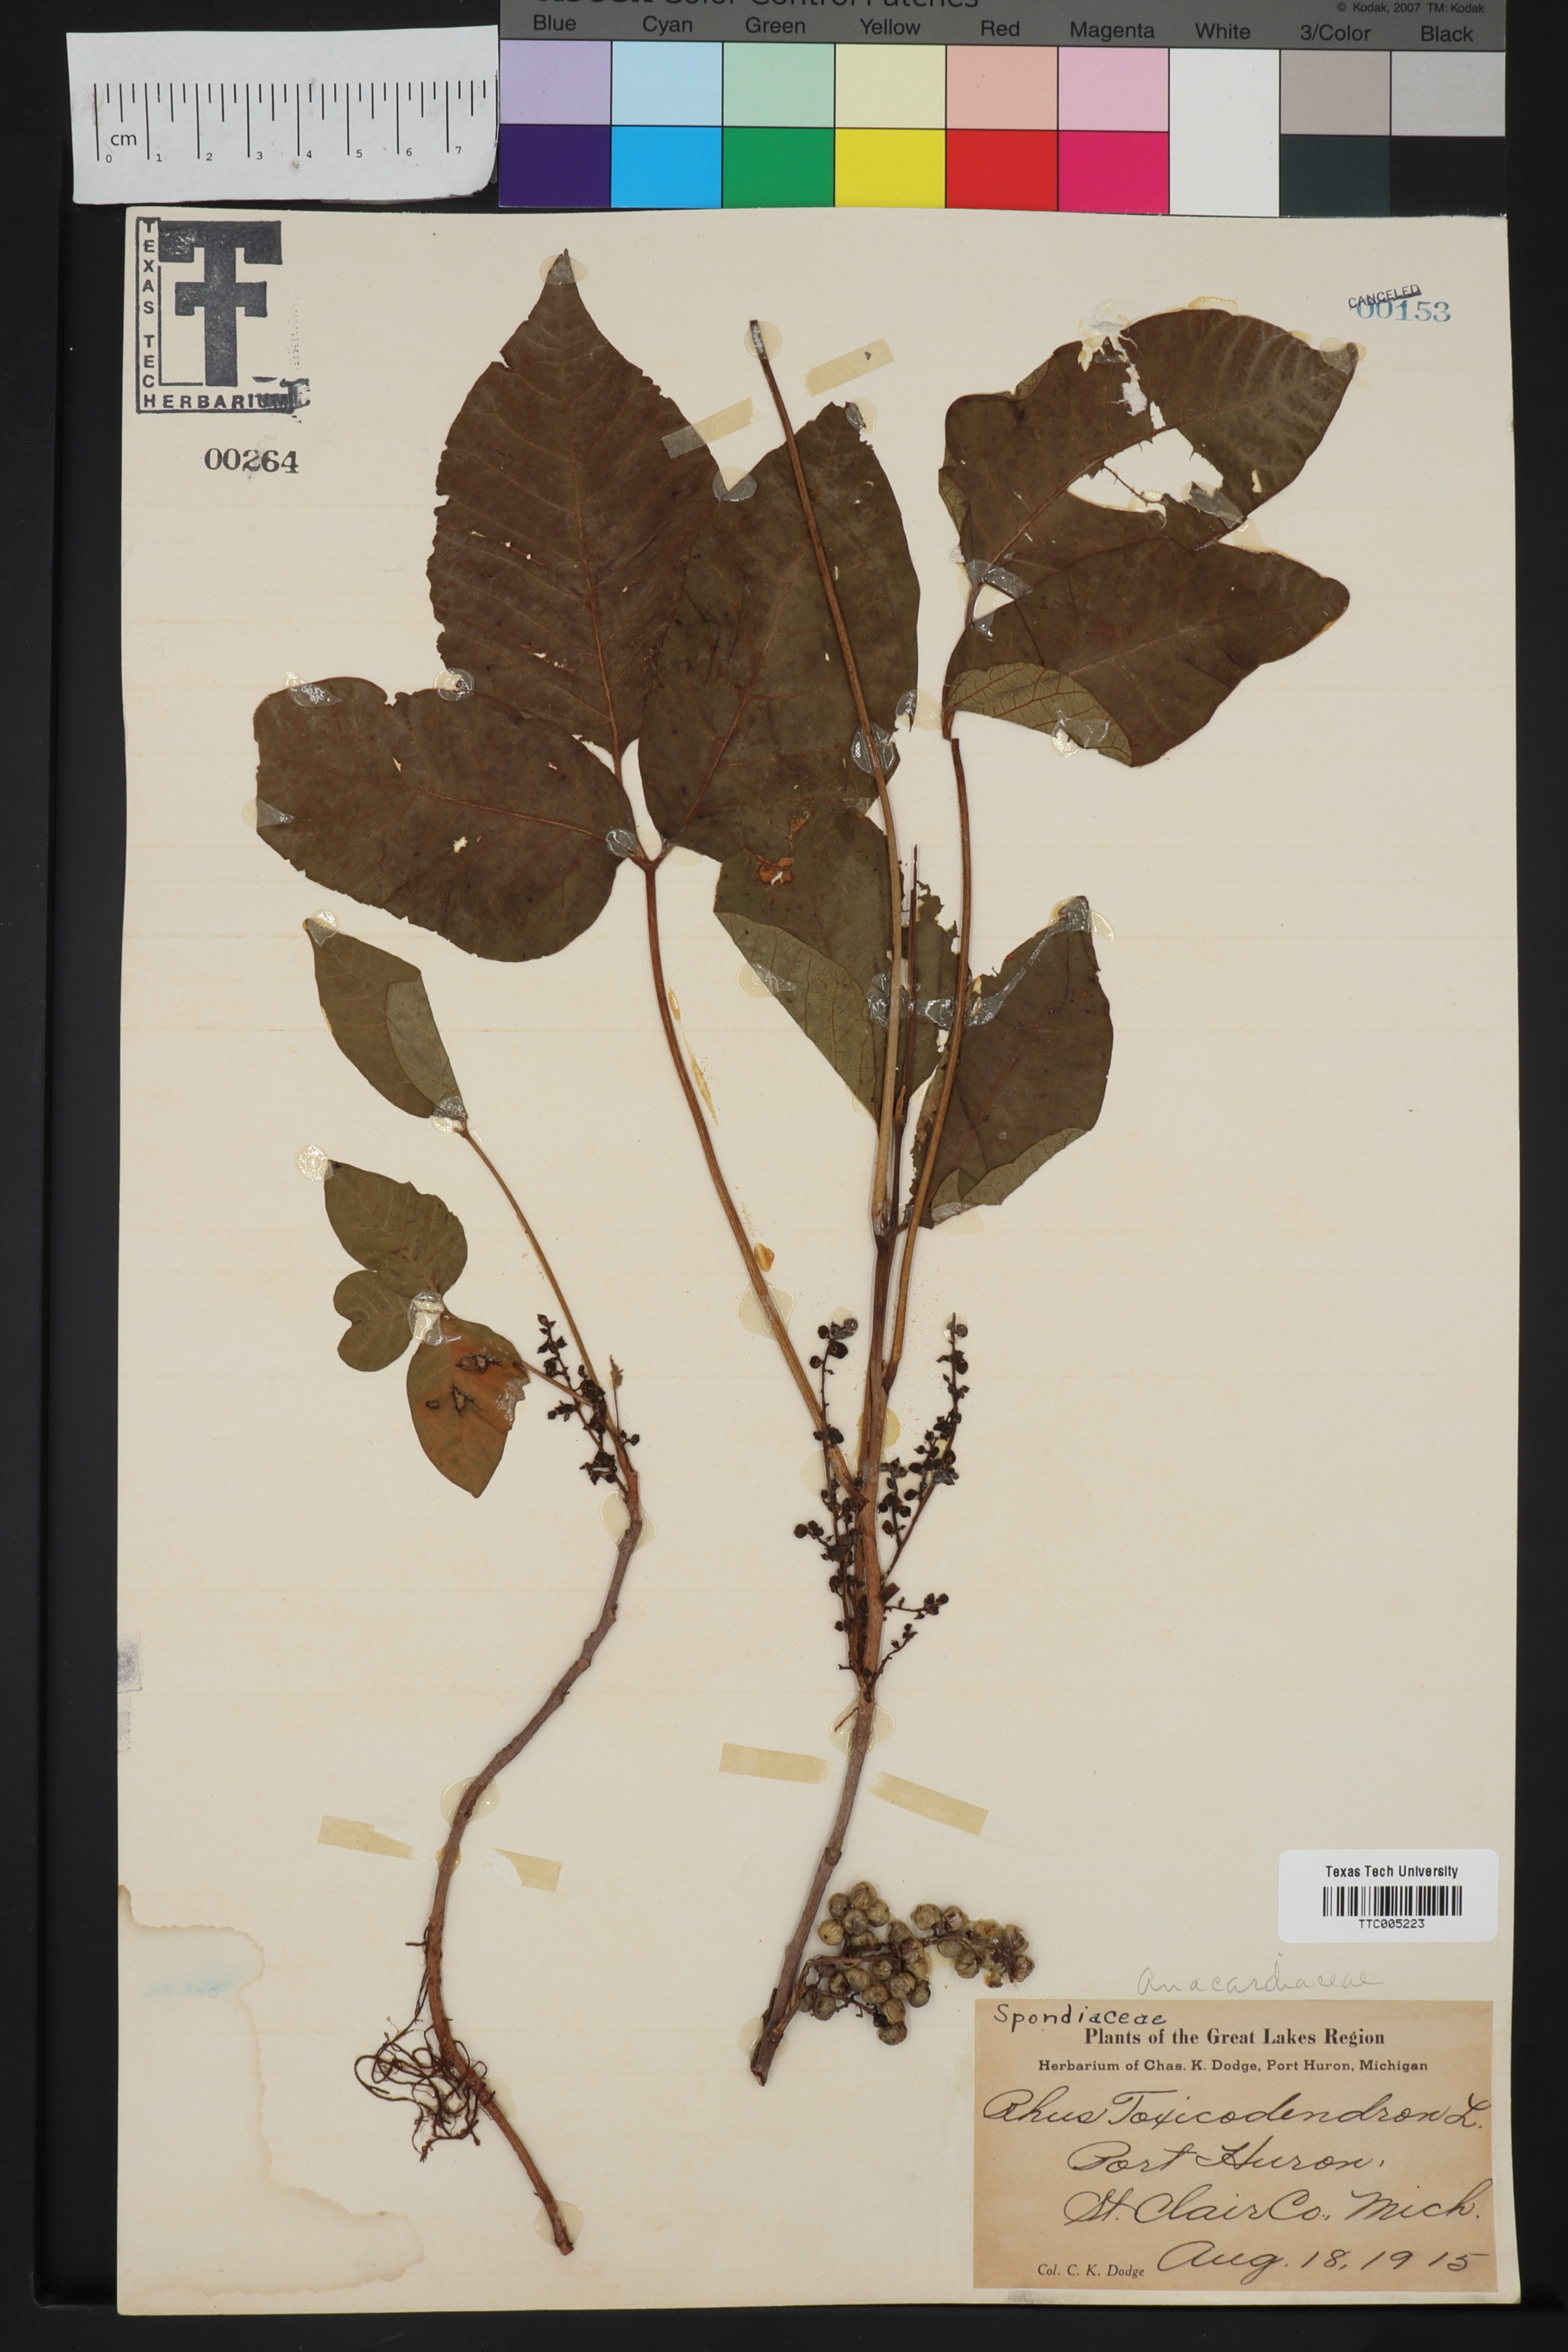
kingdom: Plantae
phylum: Tracheophyta
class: Magnoliopsida
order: Sapindales
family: Anacardiaceae
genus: Toxicodendron
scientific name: Toxicodendron
